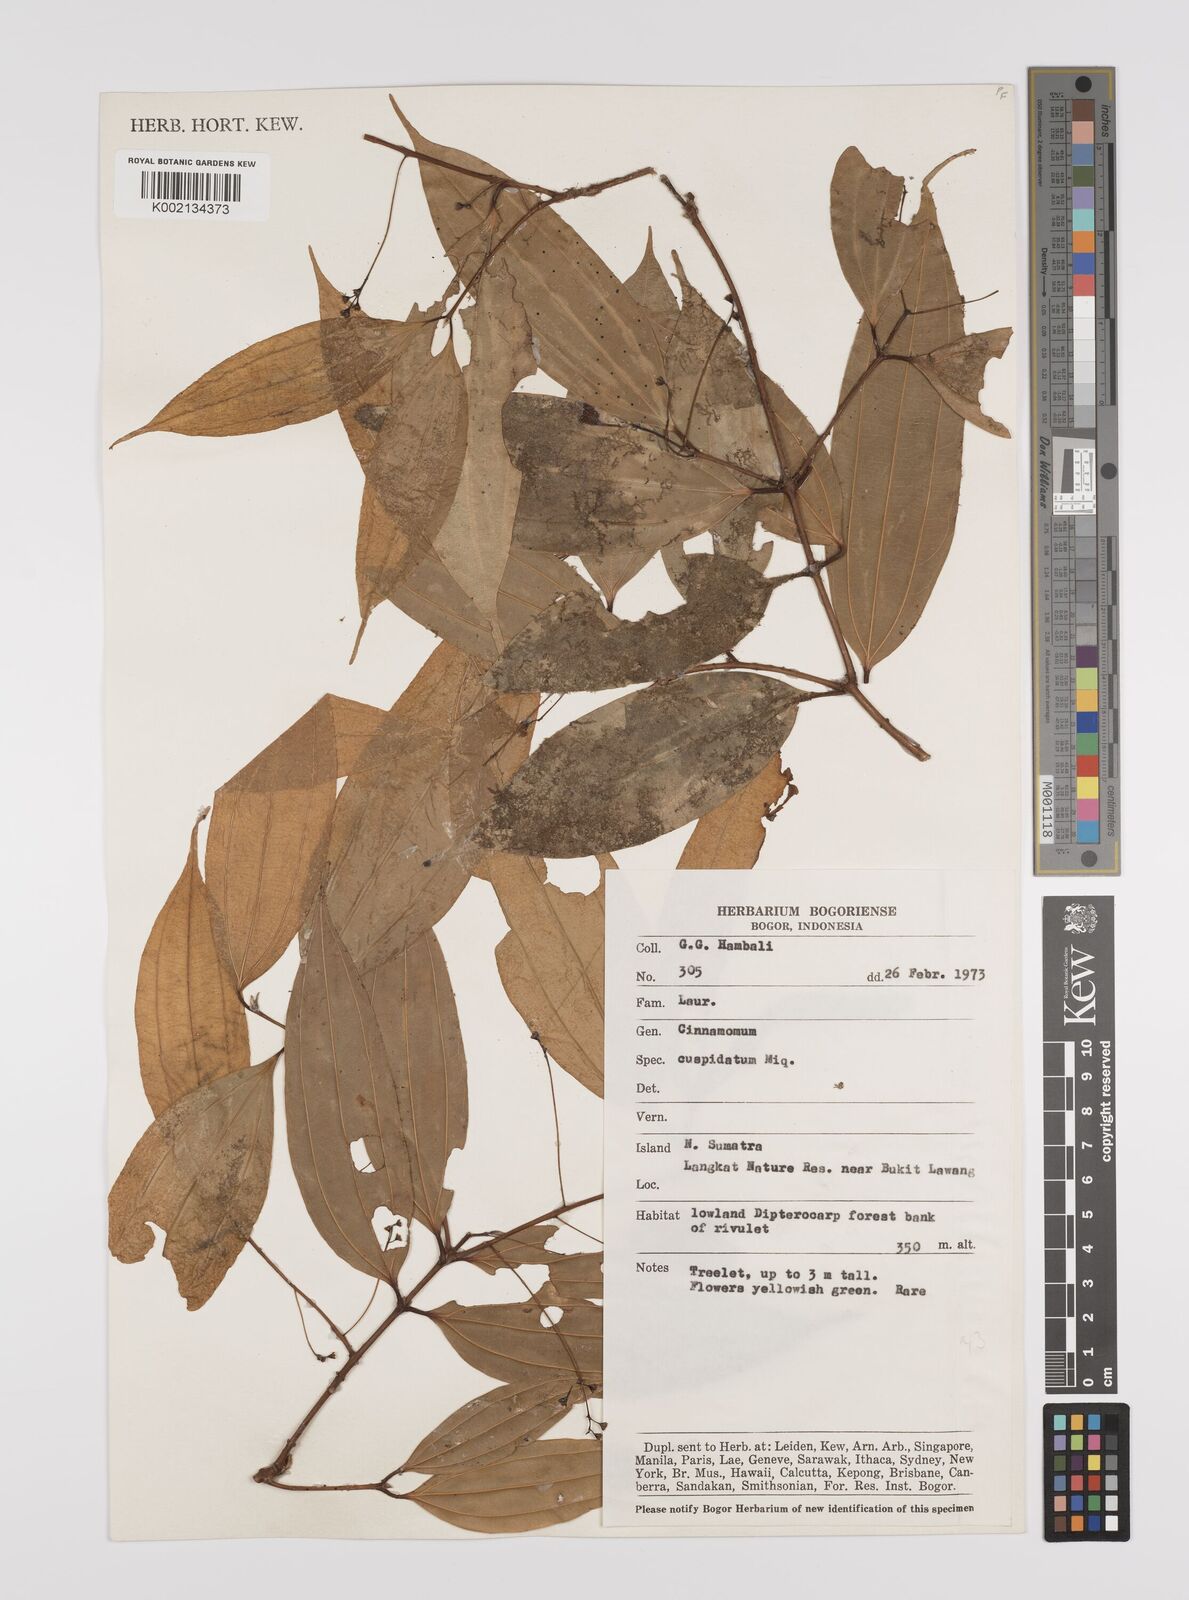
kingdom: Plantae
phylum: Tracheophyta
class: Magnoliopsida
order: Laurales
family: Lauraceae
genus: Cinnamomum
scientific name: Cinnamomum cuspidatum
